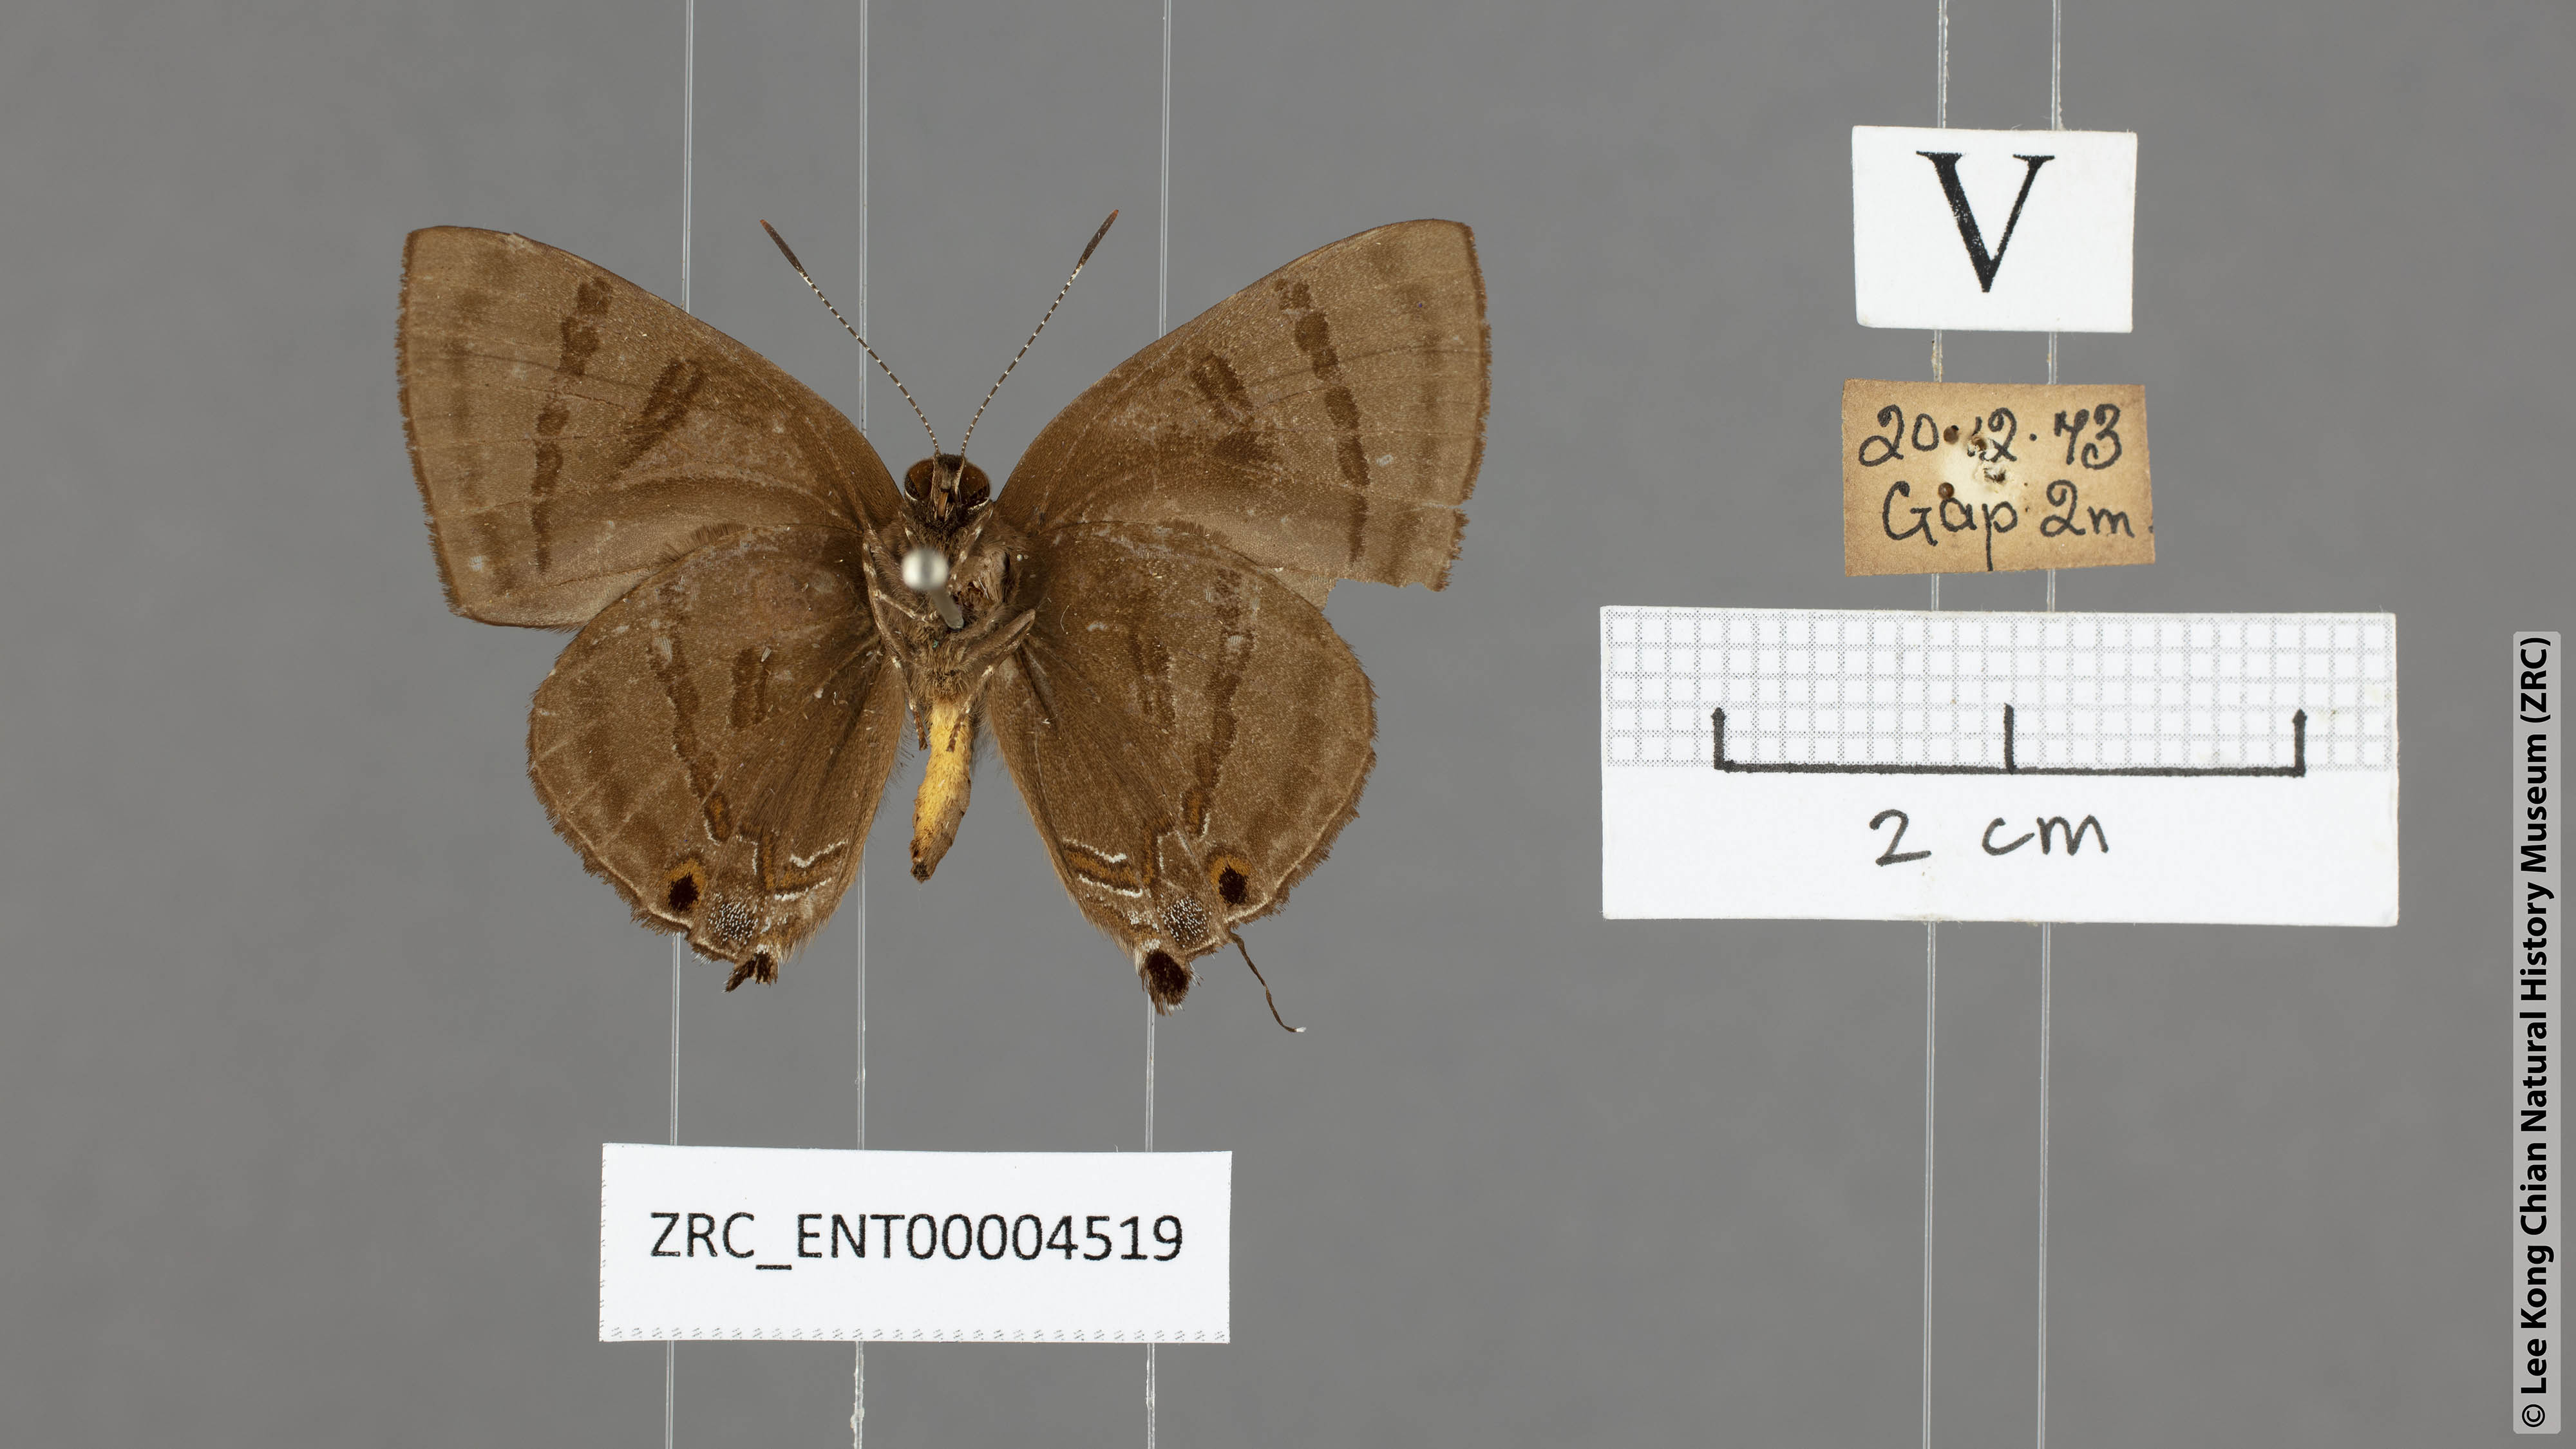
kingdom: Animalia
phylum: Arthropoda
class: Insecta
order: Lepidoptera
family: Lycaenidae
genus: Rapala
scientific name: Rapala rhoecus
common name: Brilliant flash
